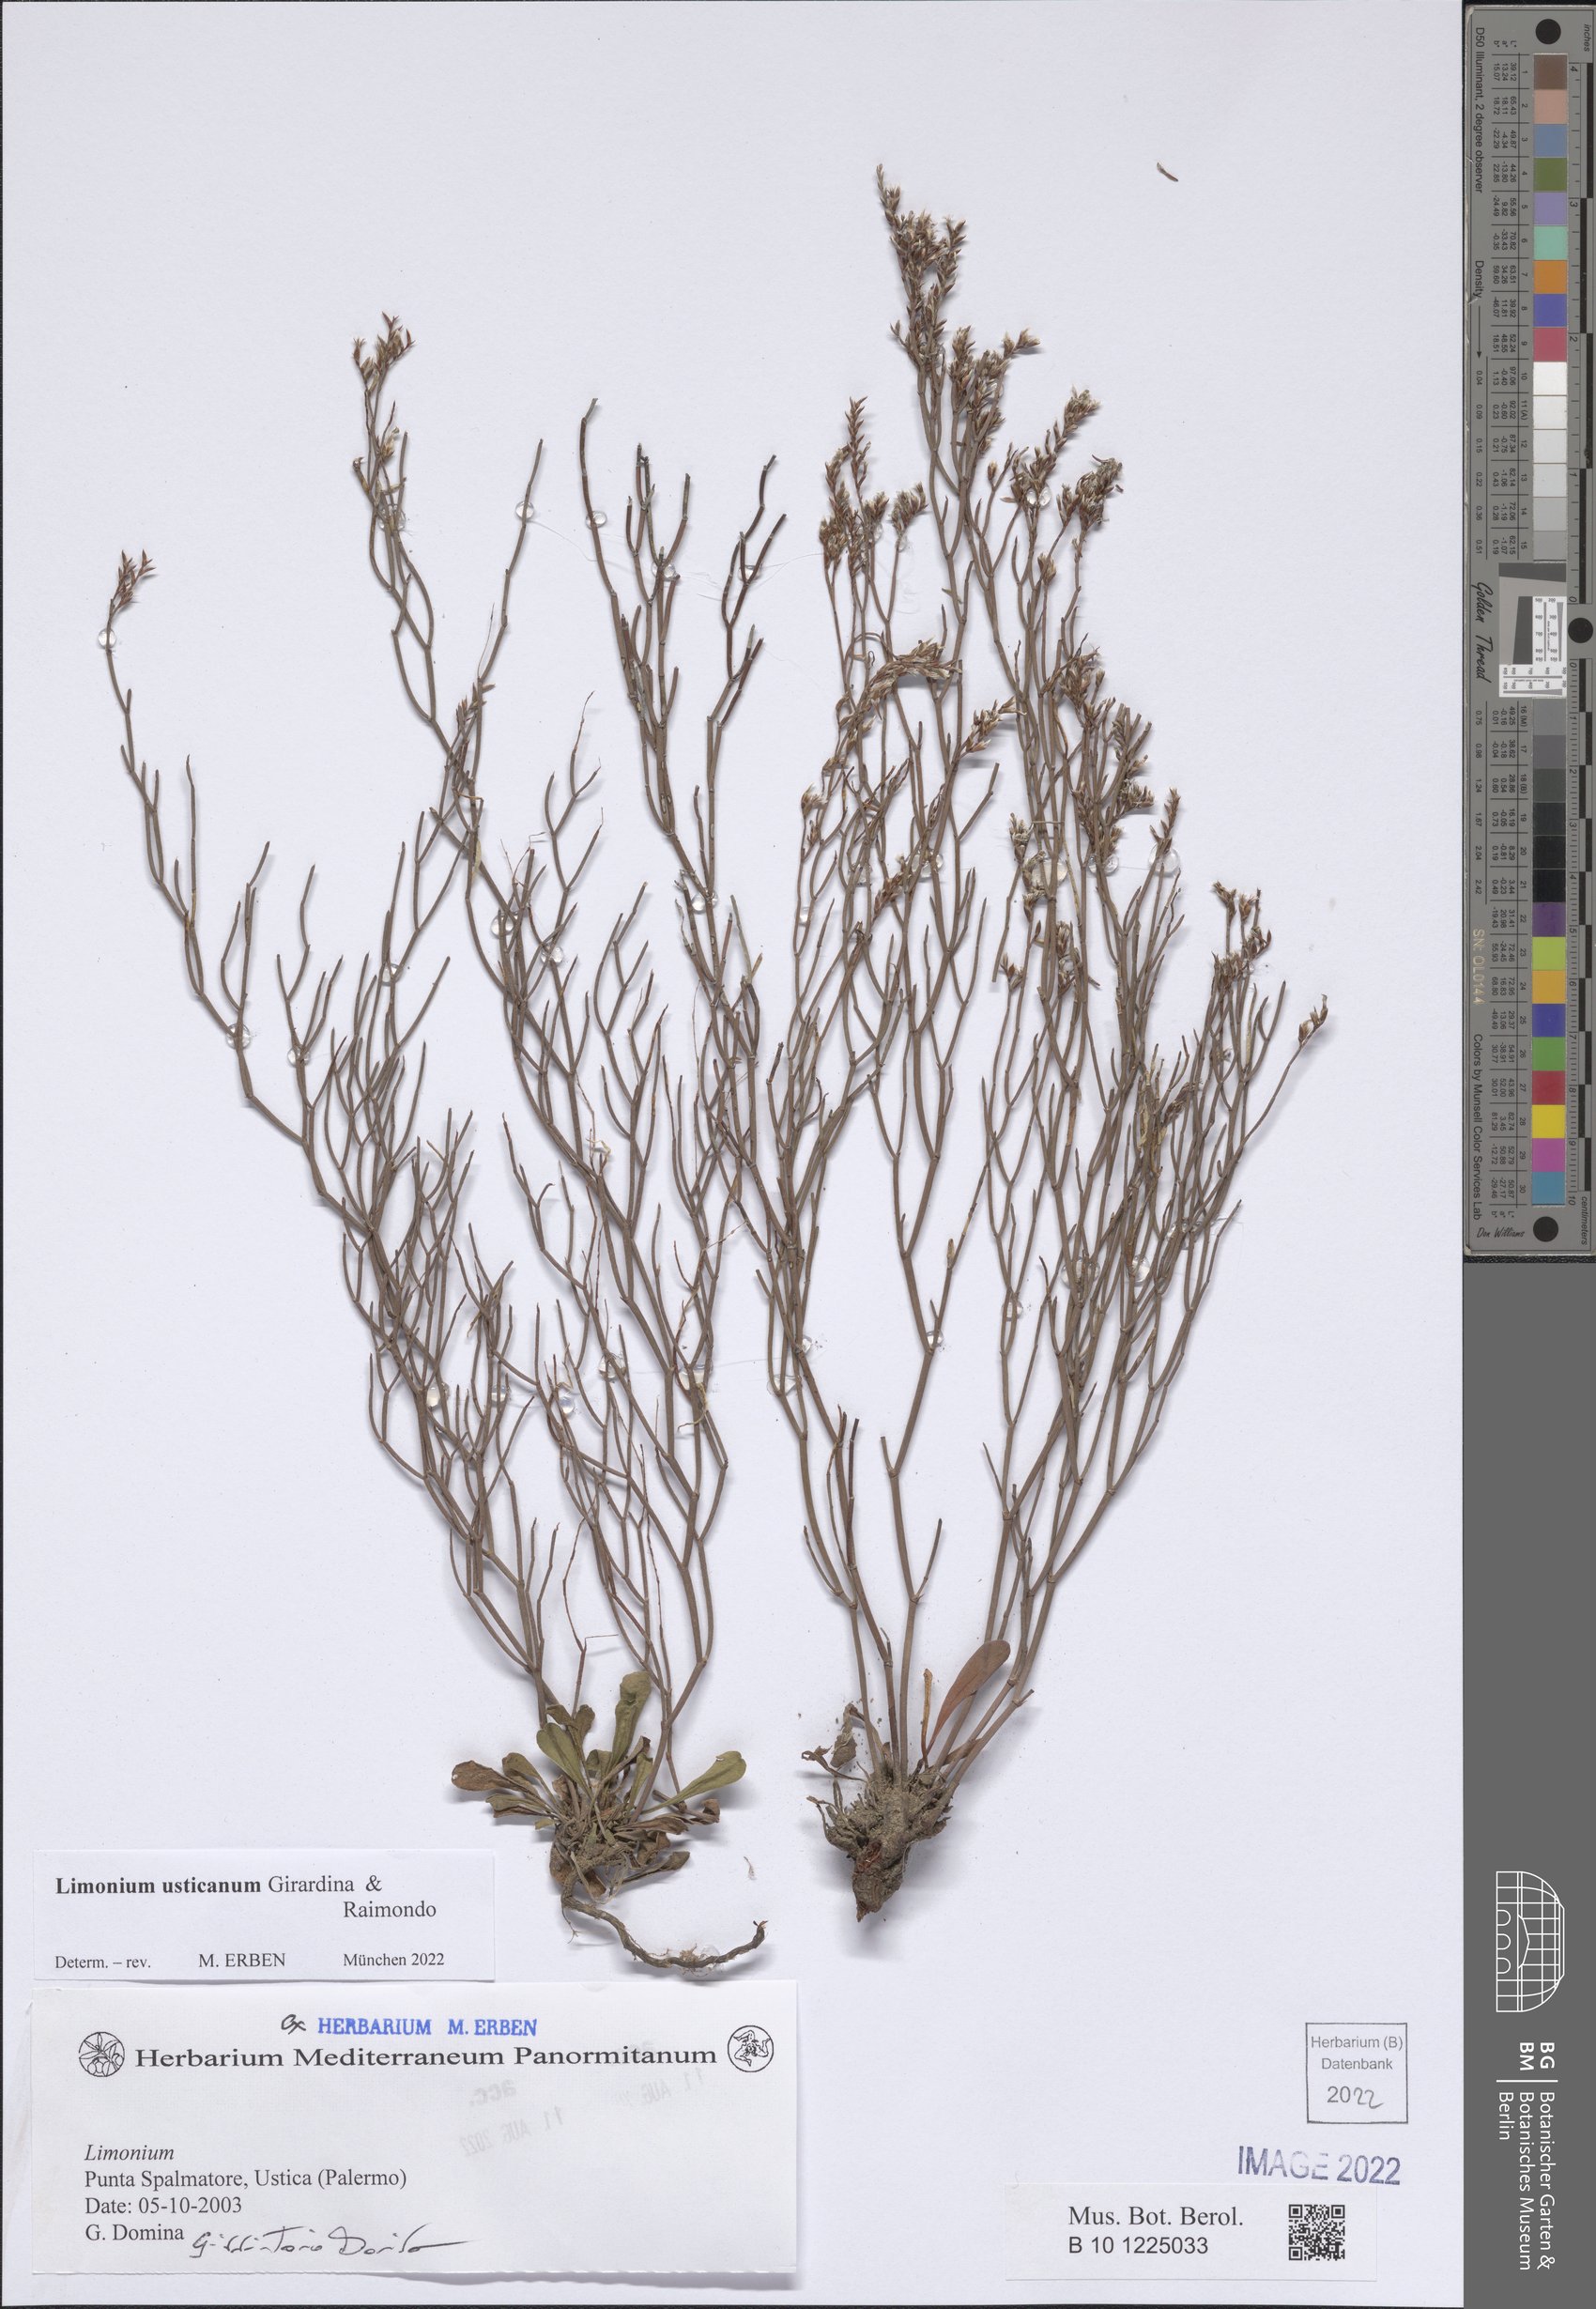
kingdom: Plantae
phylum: Tracheophyta
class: Magnoliopsida
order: Caryophyllales
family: Plumbaginaceae
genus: Limonium
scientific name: Limonium usticanum
